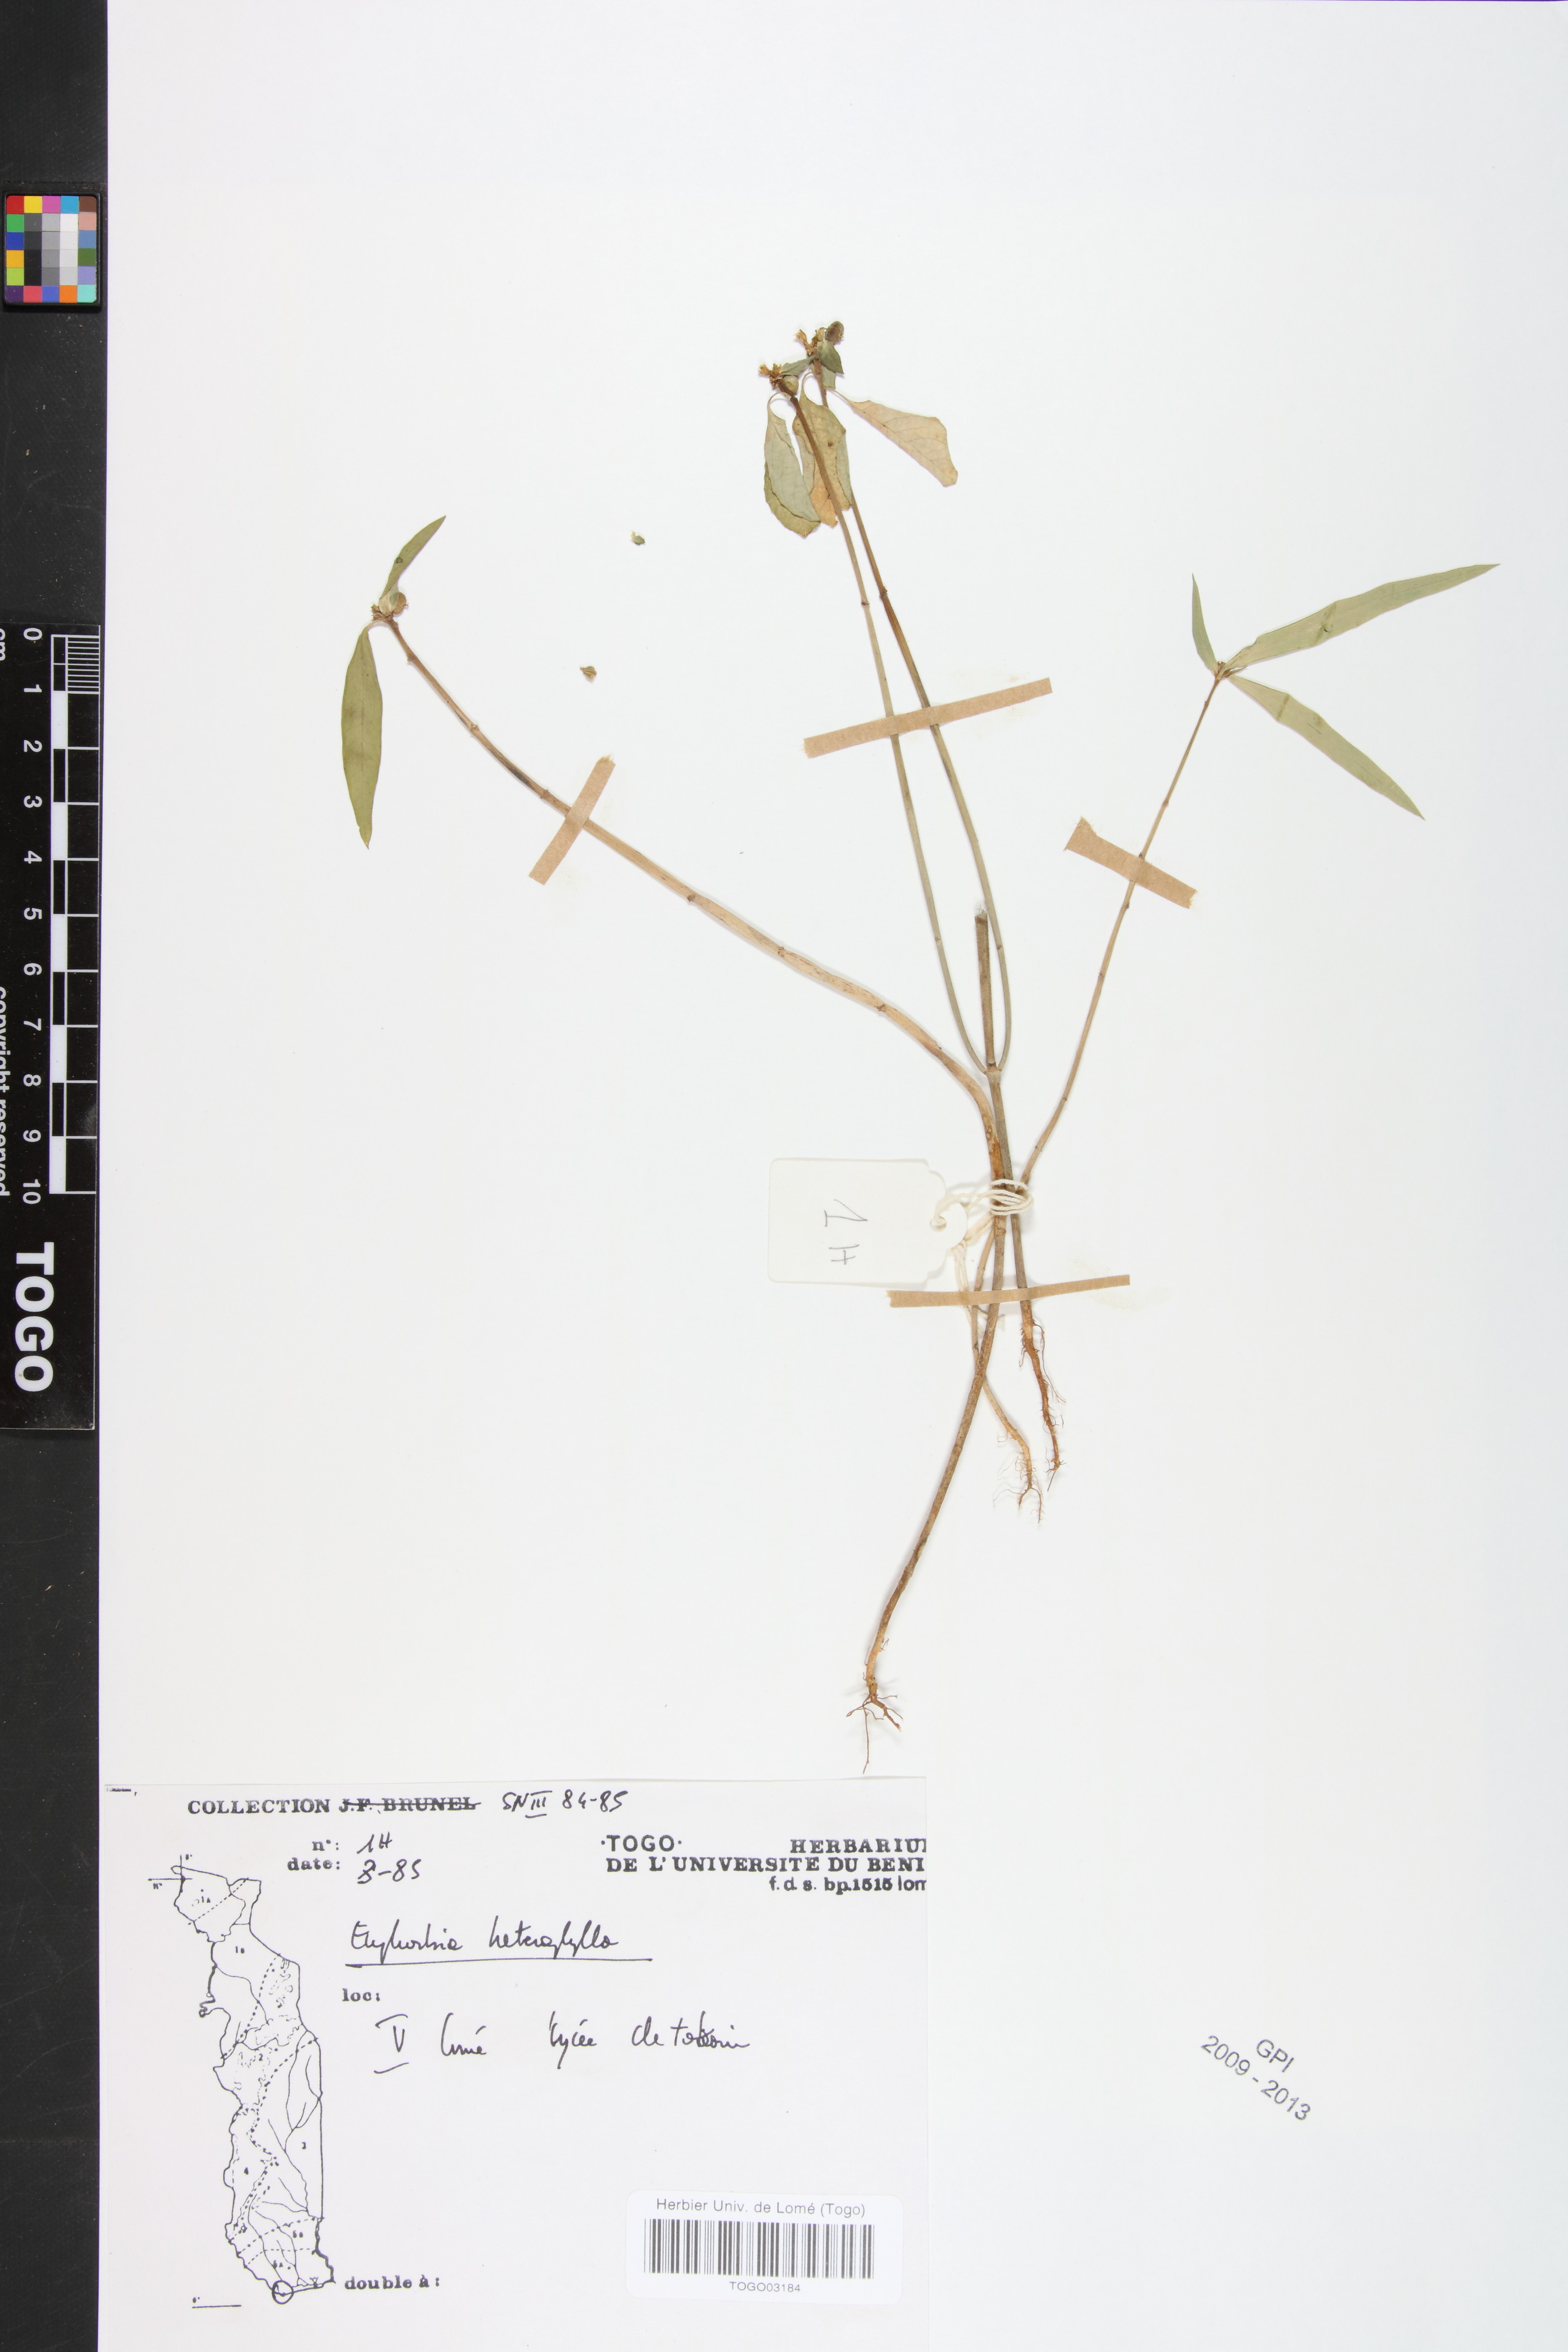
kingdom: Plantae
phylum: Tracheophyta
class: Magnoliopsida
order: Malpighiales
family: Euphorbiaceae
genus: Euphorbia
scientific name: Euphorbia heterophylla
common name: Mexican fireplant
